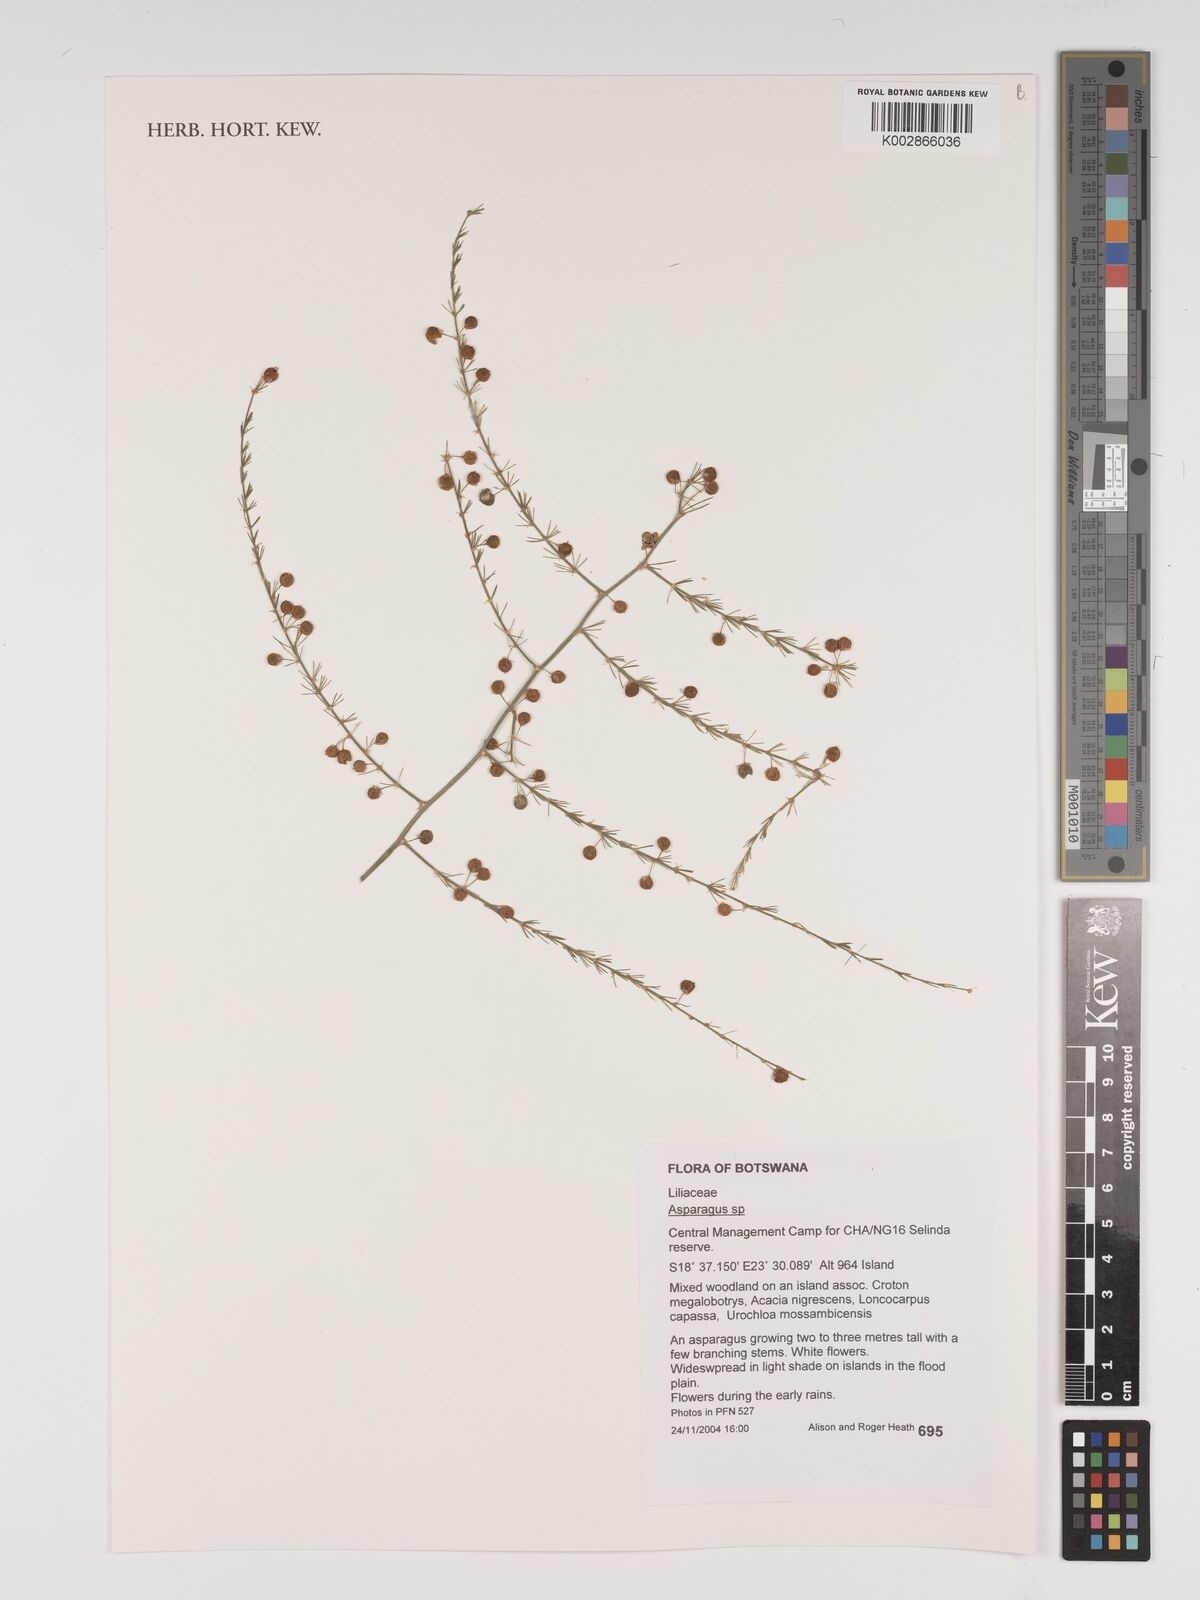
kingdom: Plantae
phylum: Tracheophyta
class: Liliopsida
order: Asparagales
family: Asparagaceae
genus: Asparagus
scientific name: Asparagus
